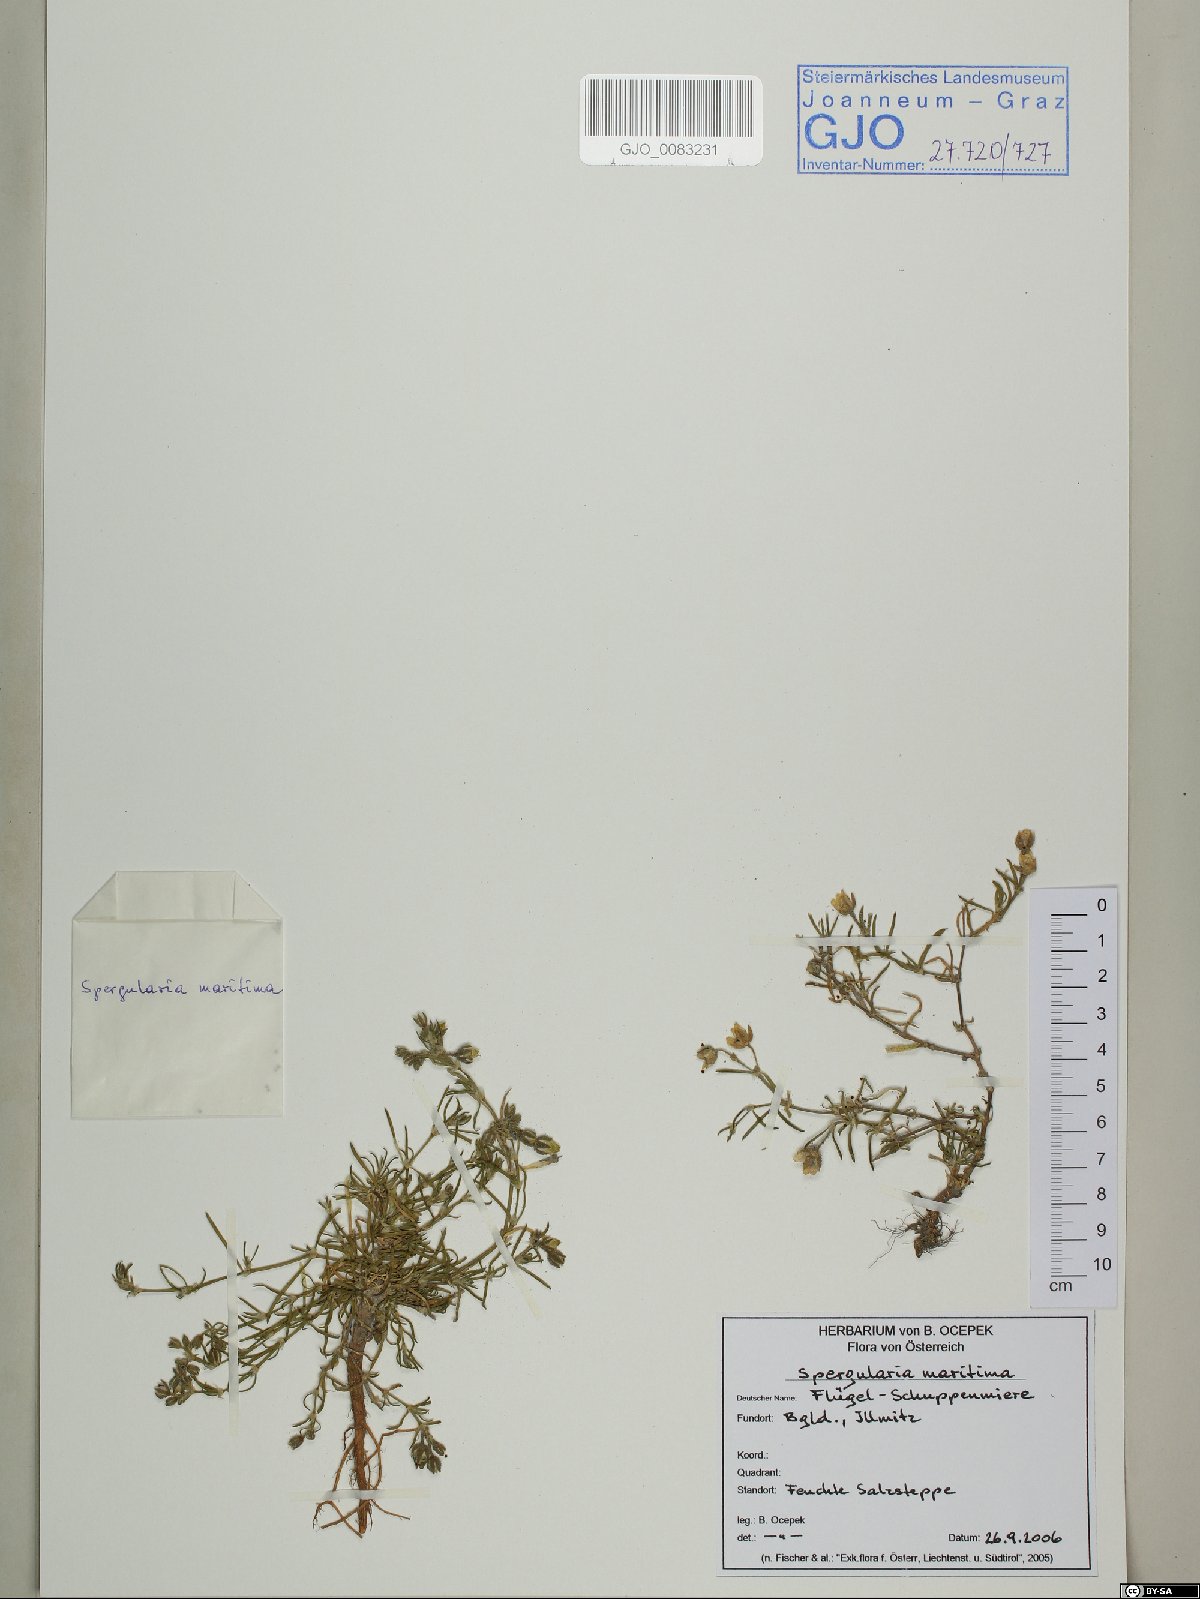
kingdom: Plantae
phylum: Tracheophyta
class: Magnoliopsida
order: Caryophyllales
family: Caryophyllaceae
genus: Spergularia
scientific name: Spergularia media
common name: Greater sea-spurrey
